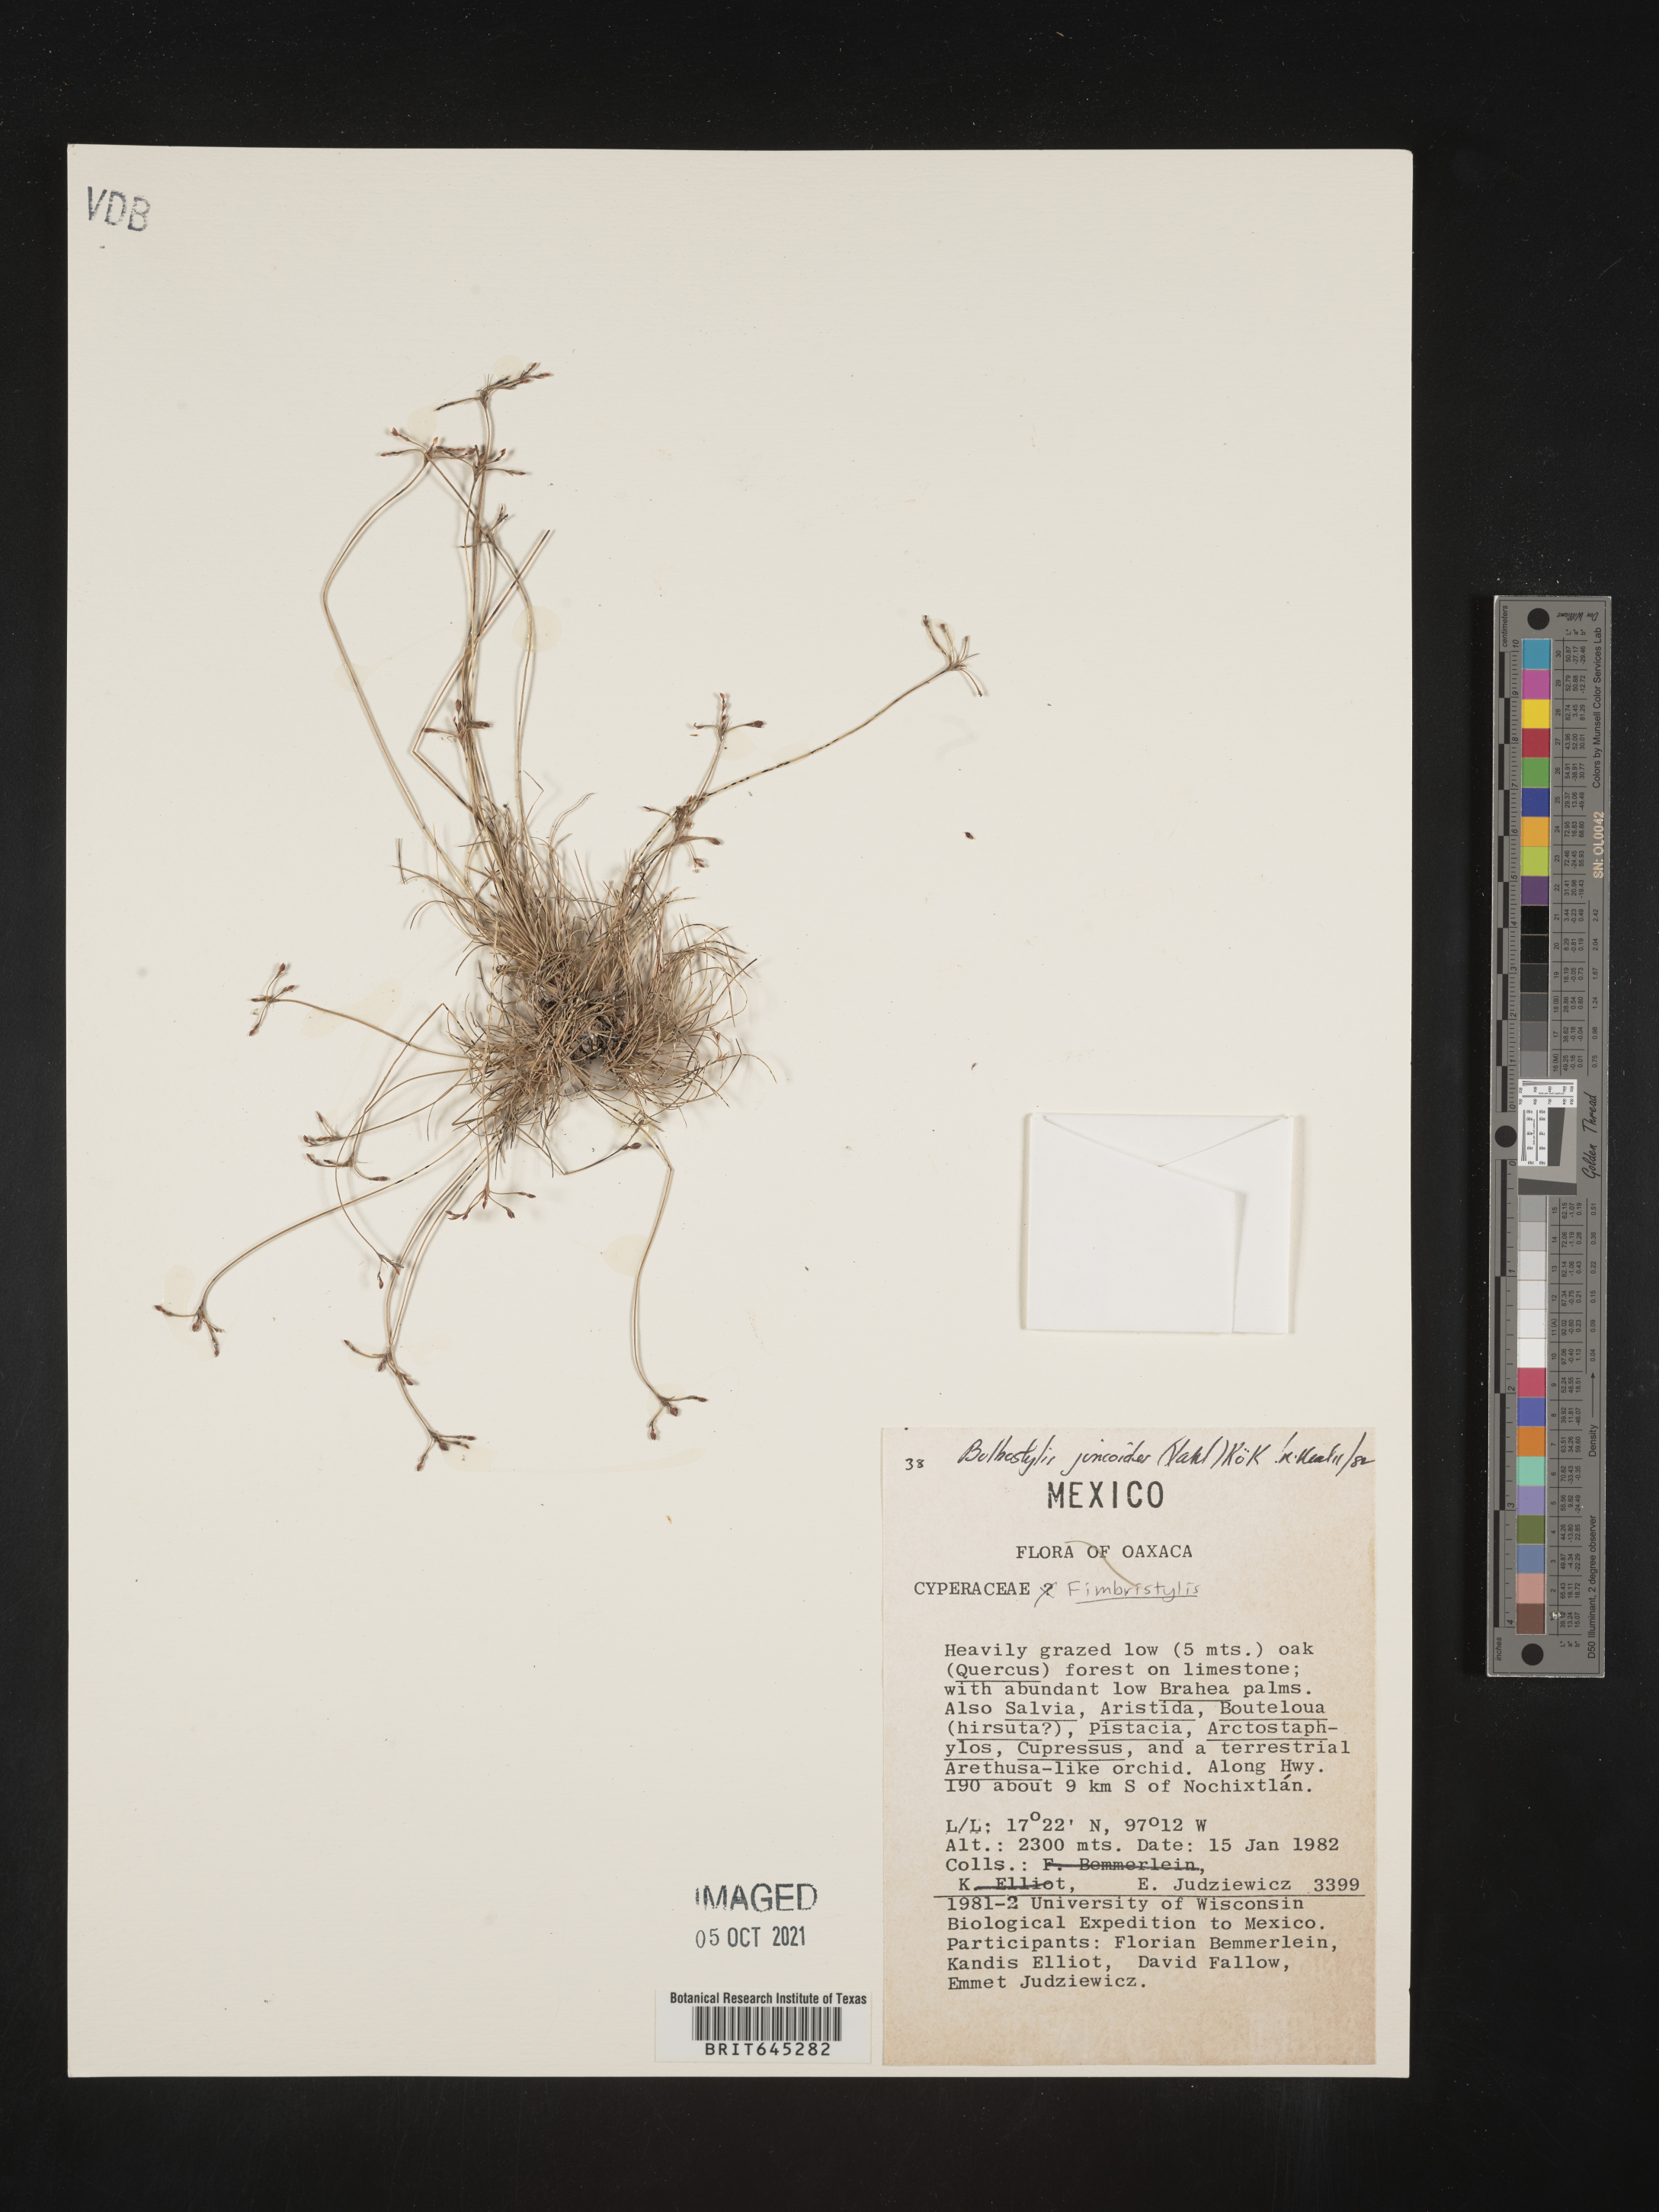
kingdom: Plantae
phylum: Tracheophyta
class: Liliopsida
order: Poales
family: Cyperaceae
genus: Bulbostylis
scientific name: Bulbostylis juncoides
